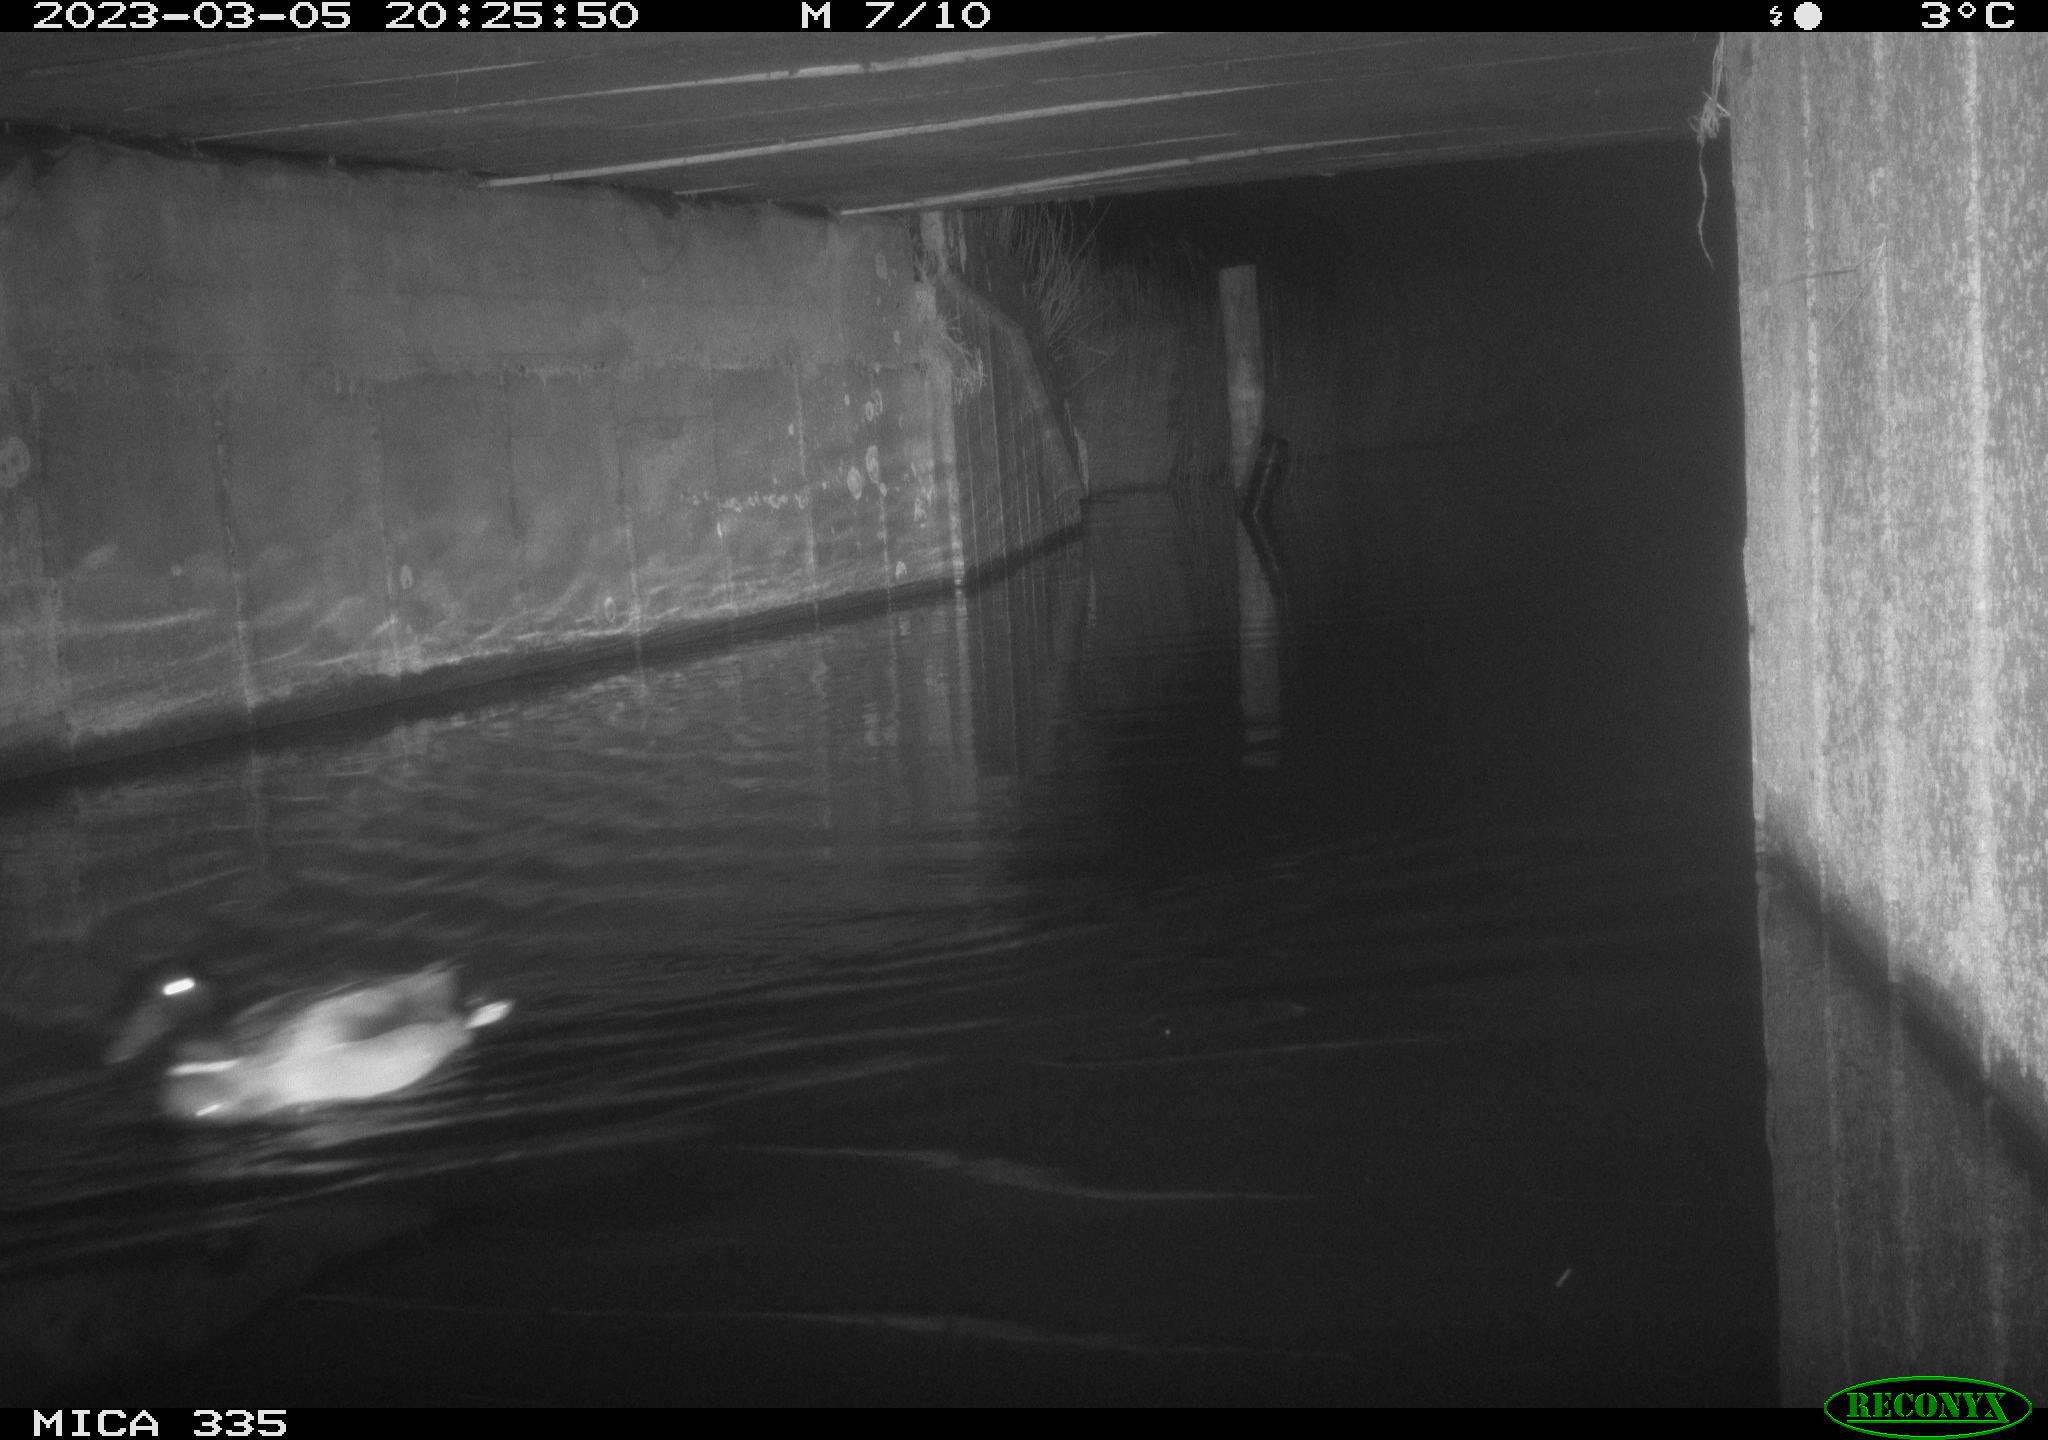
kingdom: Animalia
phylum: Chordata
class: Aves
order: Anseriformes
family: Anatidae
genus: Anas
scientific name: Anas
